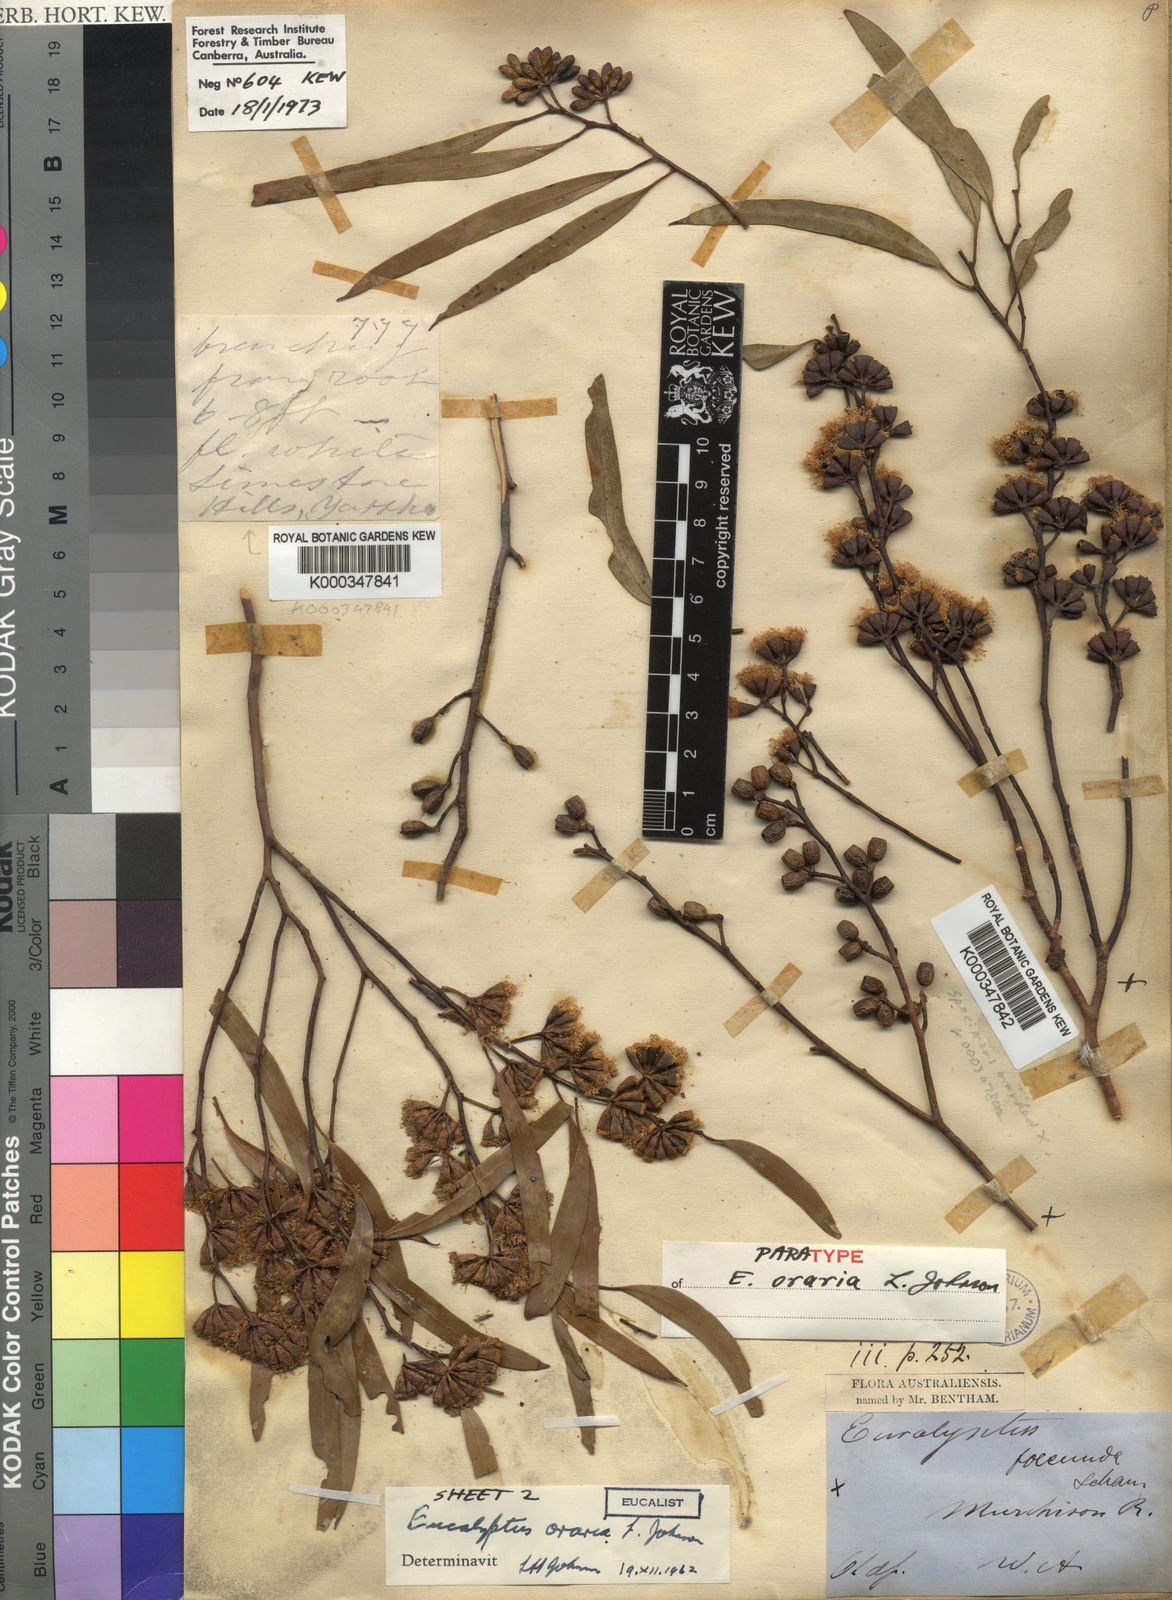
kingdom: Plantae
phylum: Tracheophyta
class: Magnoliopsida
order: Myrtales
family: Myrtaceae
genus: Eucalyptus
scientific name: Eucalyptus oraria
